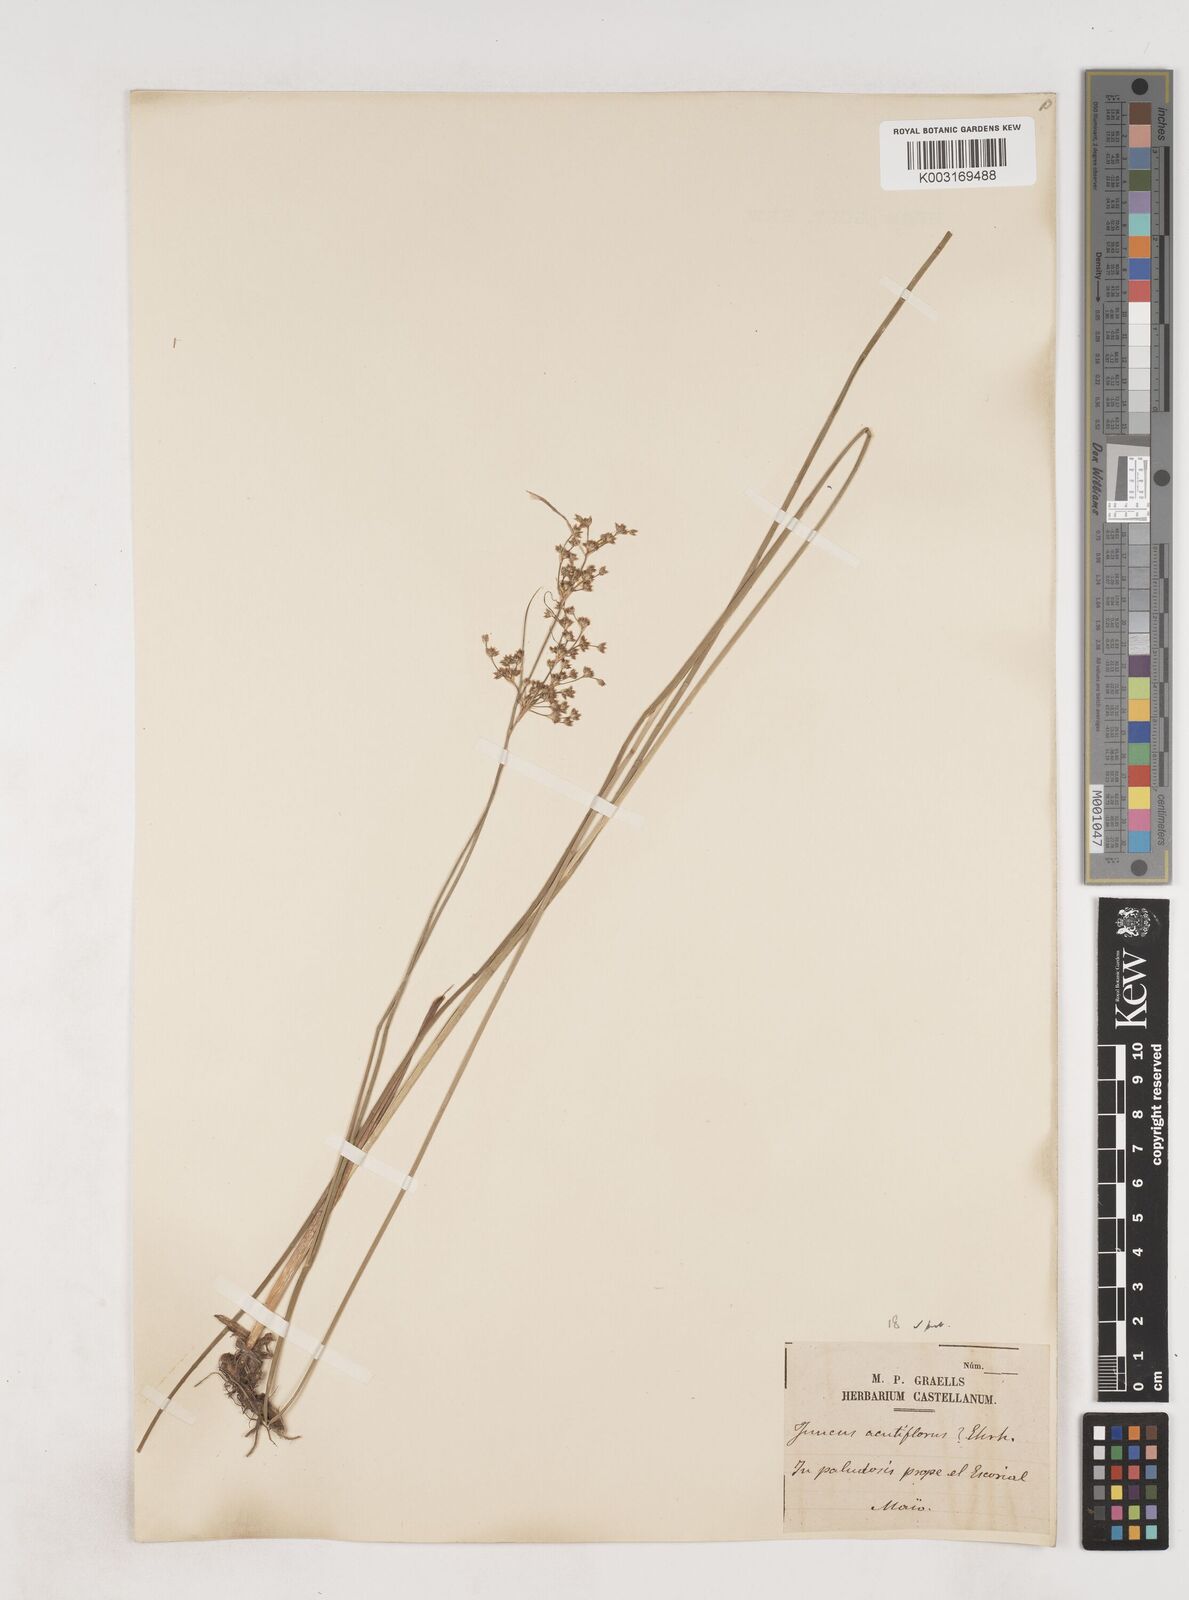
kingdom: Plantae
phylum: Tracheophyta
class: Liliopsida
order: Poales
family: Juncaceae
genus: Juncus
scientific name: Juncus acutiflorus
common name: Sharp-flowered rush
